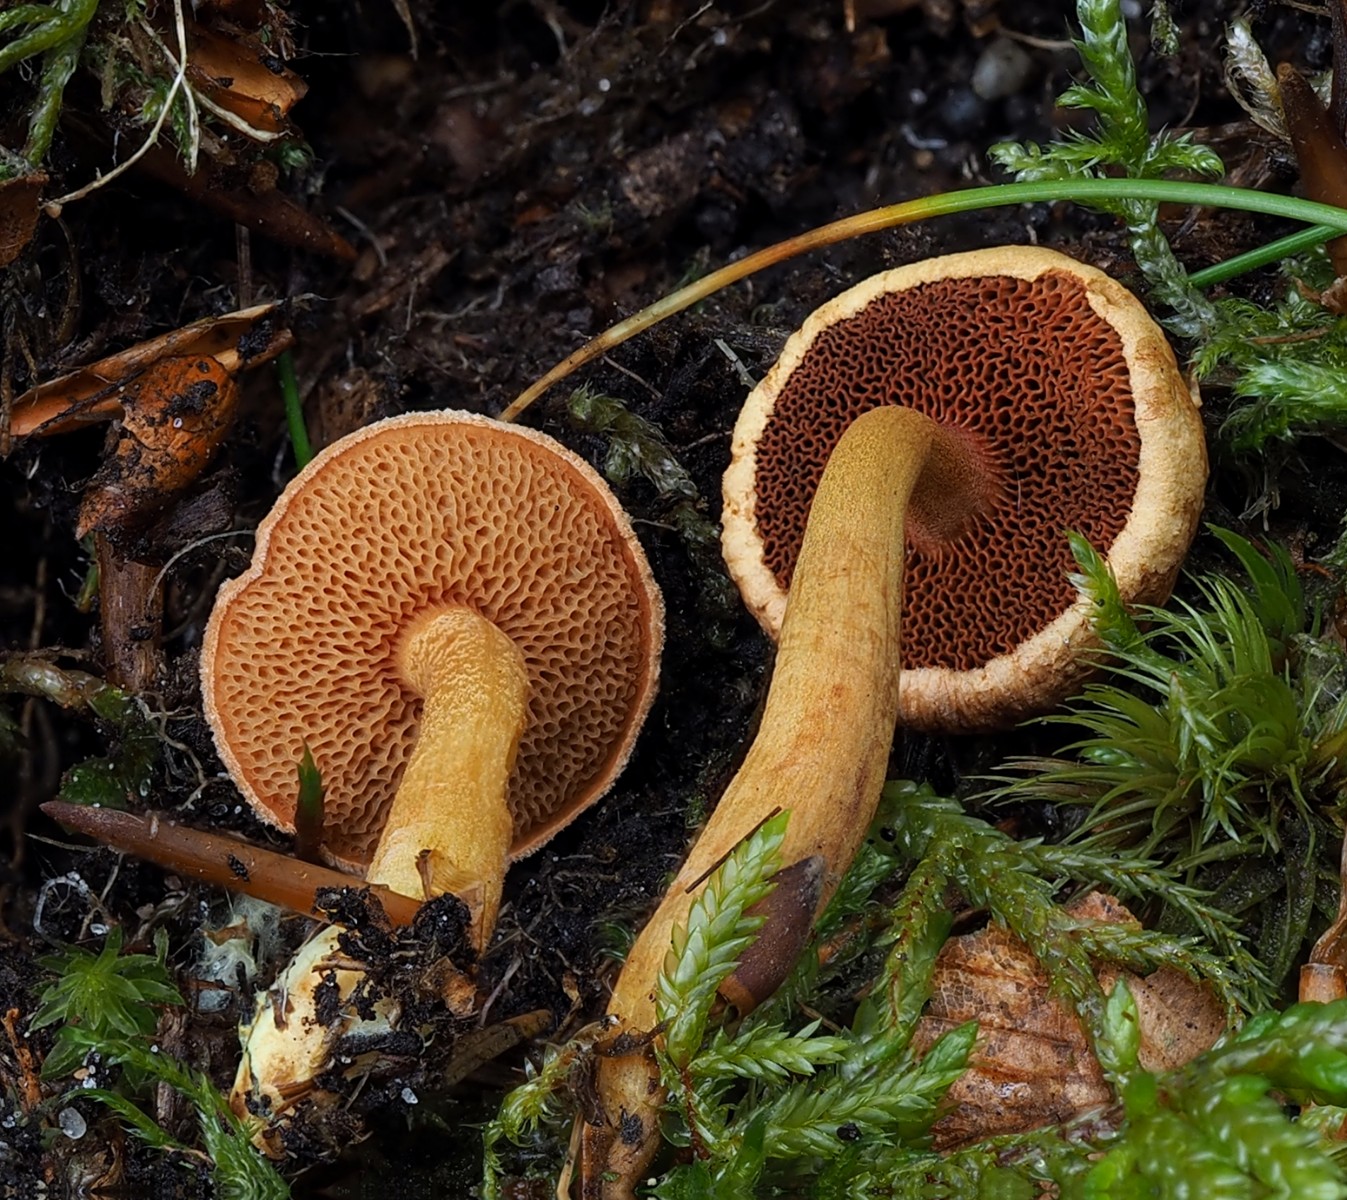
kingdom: Fungi
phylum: Basidiomycota
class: Agaricomycetes
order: Boletales
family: Boletaceae
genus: Chalciporus
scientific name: Chalciporus piperatus
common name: peberrørhat
